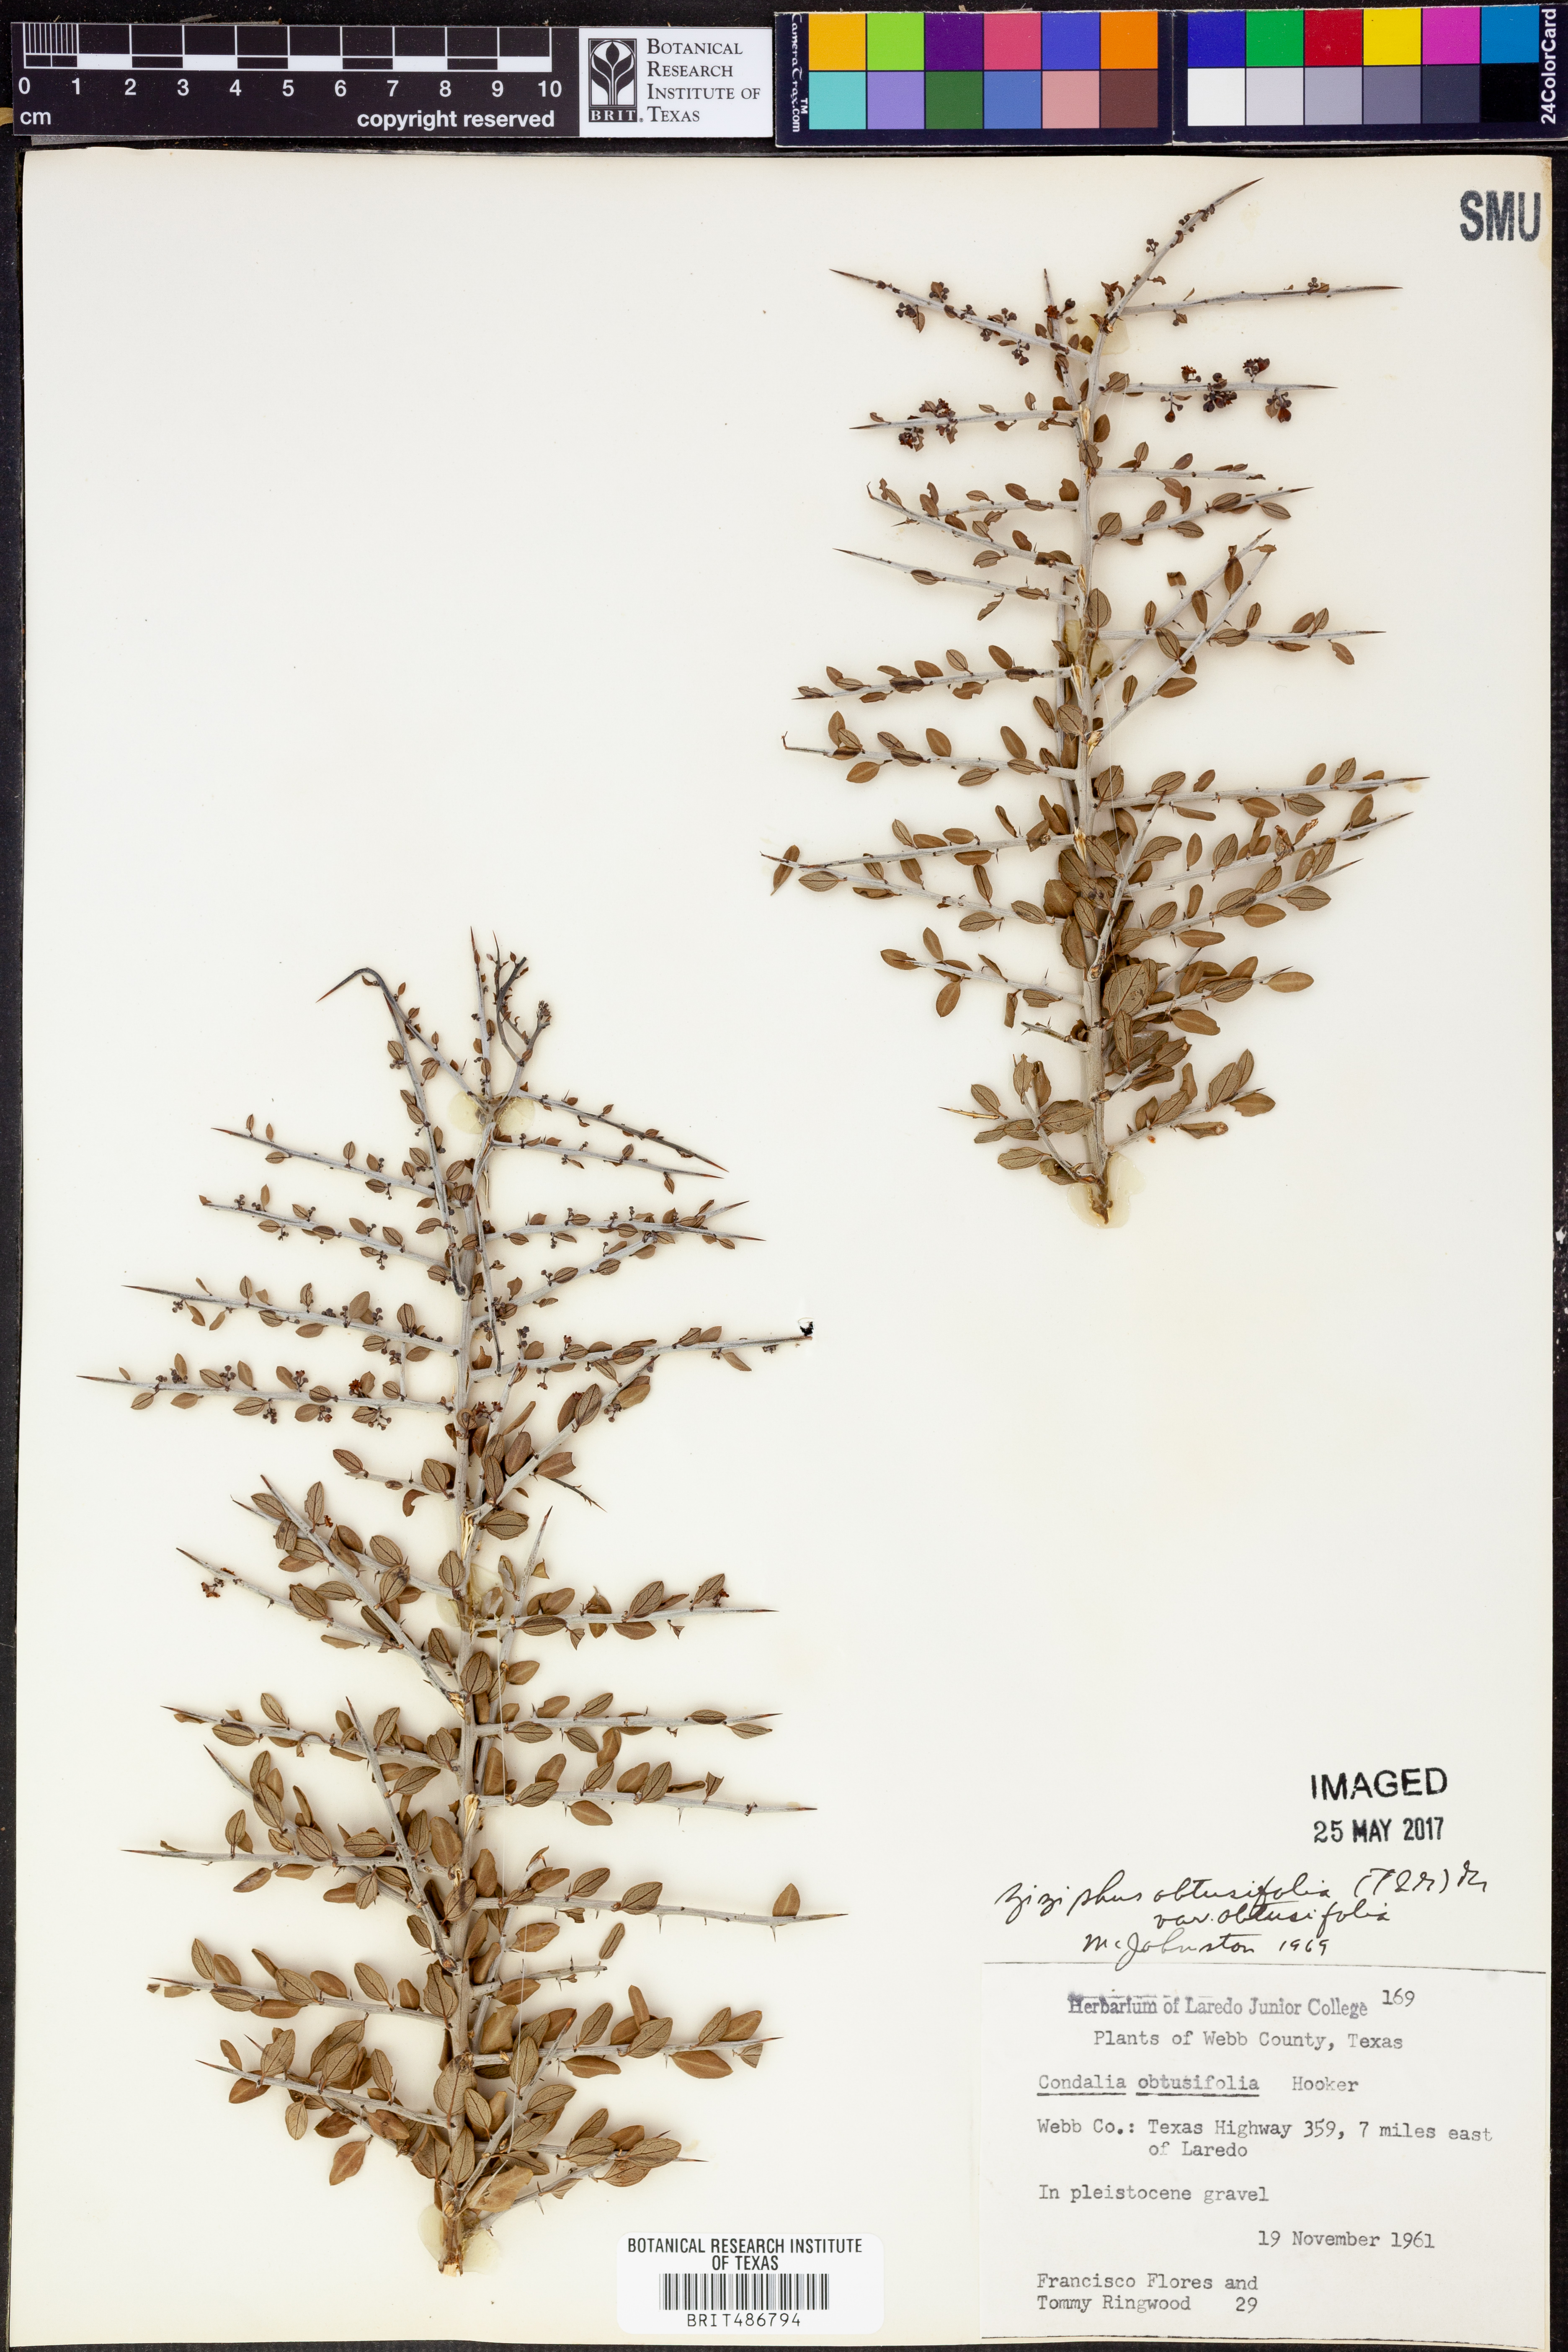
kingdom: Plantae
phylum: Tracheophyta
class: Magnoliopsida
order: Rosales
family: Rhamnaceae
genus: Sarcomphalus
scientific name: Sarcomphalus obtusifolius
